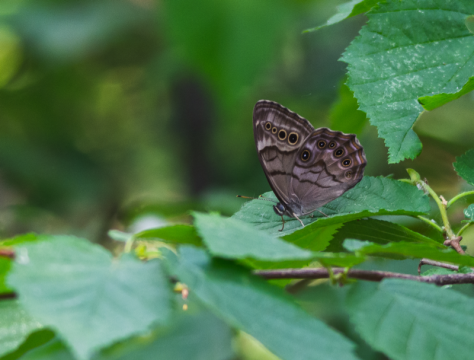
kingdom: Animalia
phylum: Arthropoda
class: Insecta
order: Lepidoptera
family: Nymphalidae
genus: Lethe
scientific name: Lethe anthedon
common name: Northern Pearly-Eye
